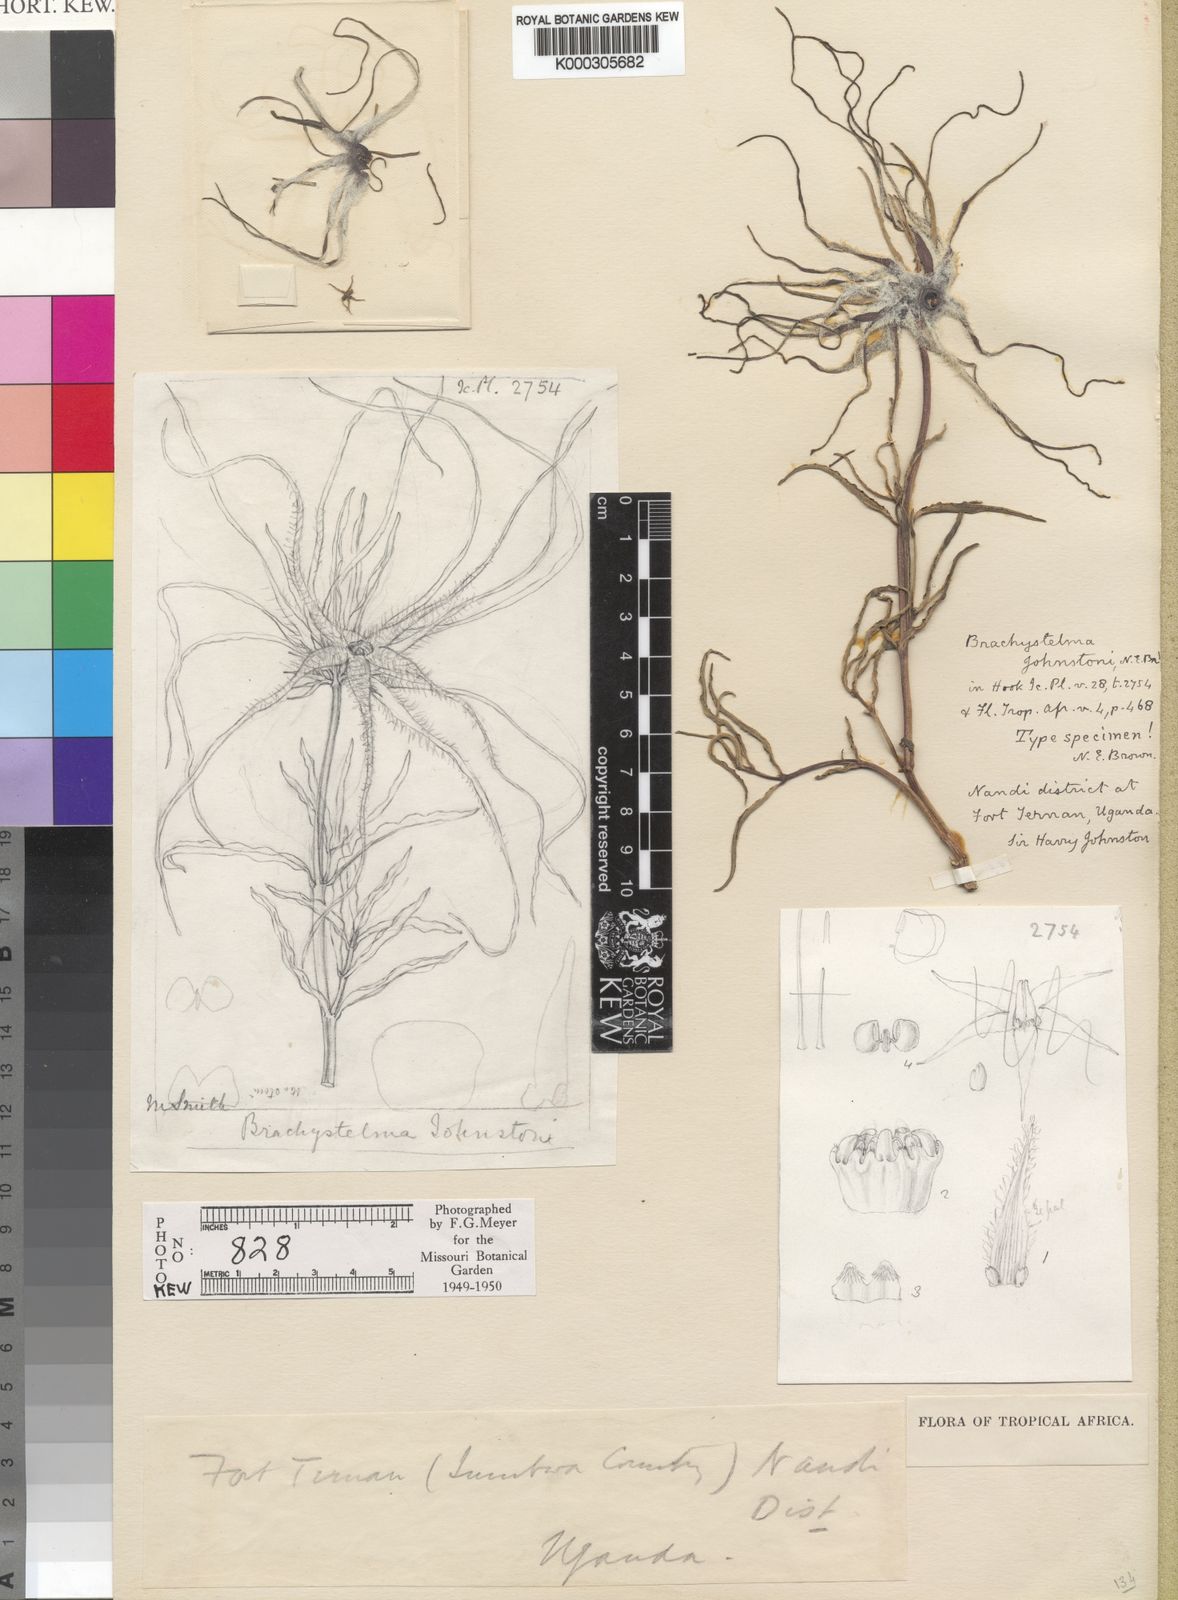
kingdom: Plantae
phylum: Tracheophyta
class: Magnoliopsida
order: Gentianales
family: Apocynaceae
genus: Ceropegia
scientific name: Ceropegia johnstonii
